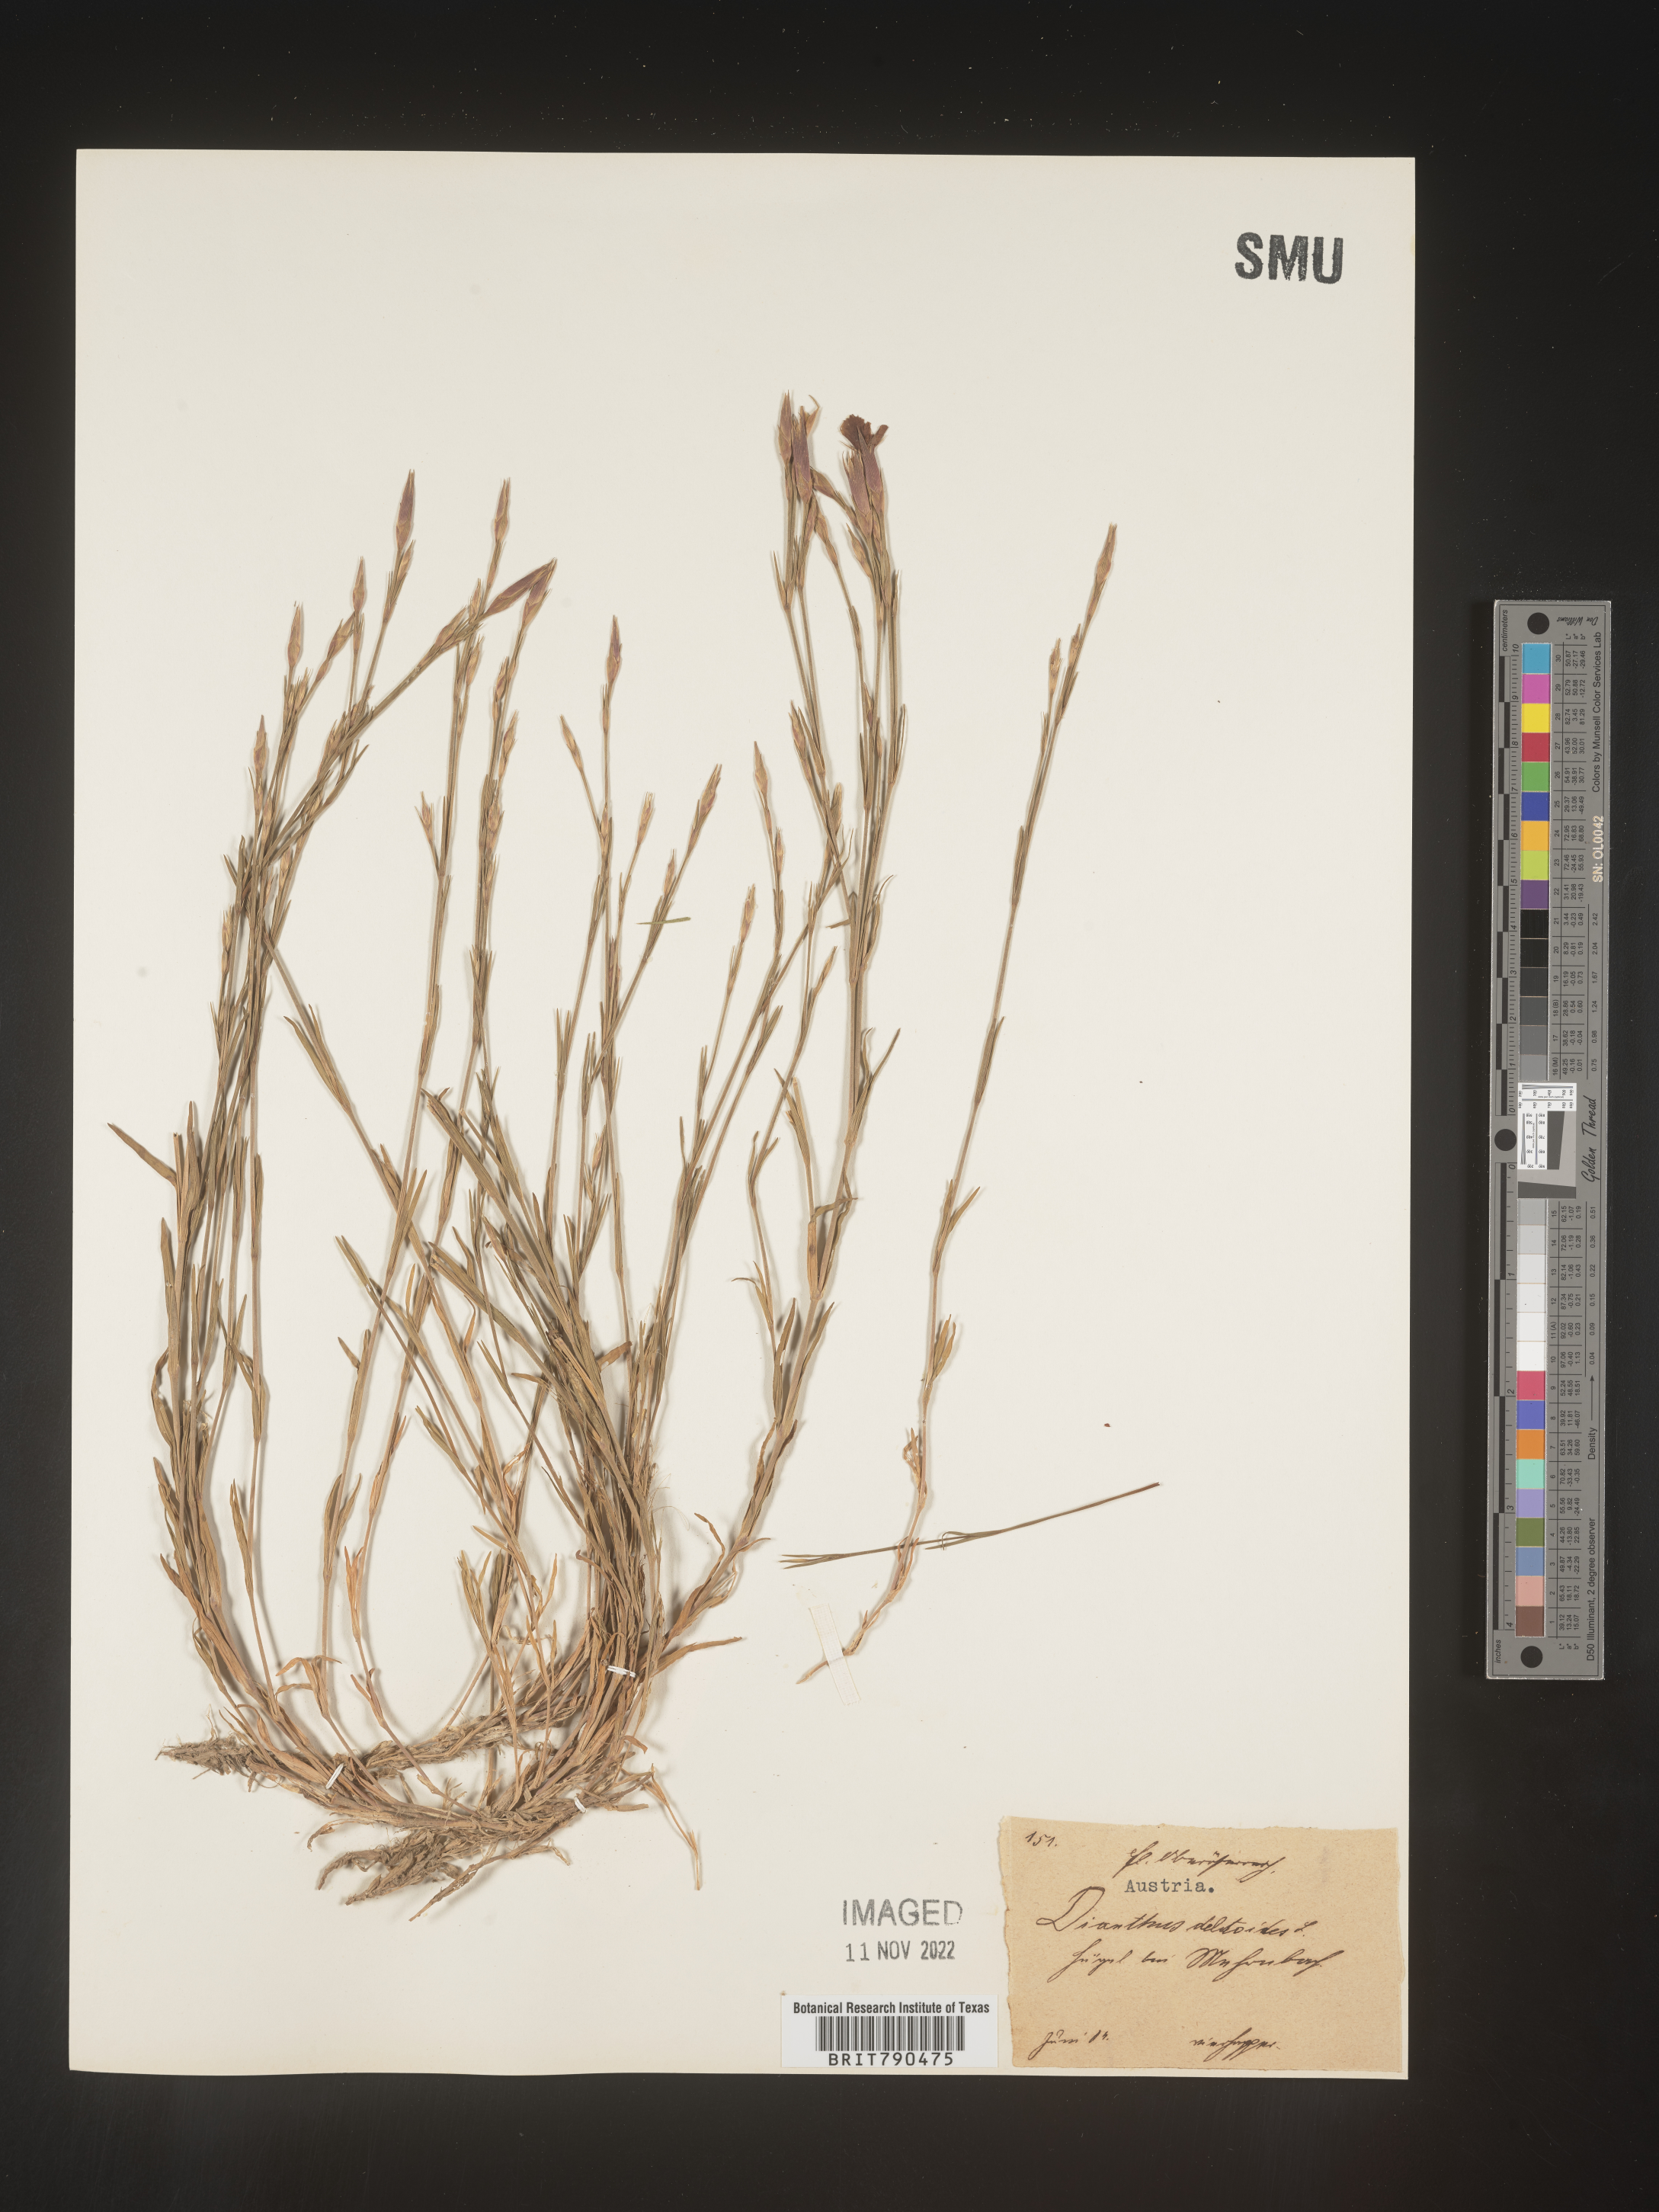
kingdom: Plantae
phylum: Tracheophyta
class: Magnoliopsida
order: Caryophyllales
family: Caryophyllaceae
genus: Dianthus
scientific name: Dianthus deltoides
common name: Maiden pink
